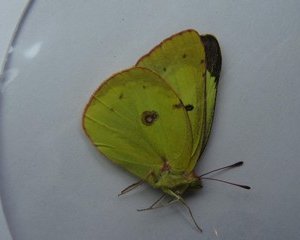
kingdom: Animalia
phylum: Arthropoda
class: Insecta
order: Lepidoptera
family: Pieridae
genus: Colias
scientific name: Colias philodice
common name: Clouded Sulphur
